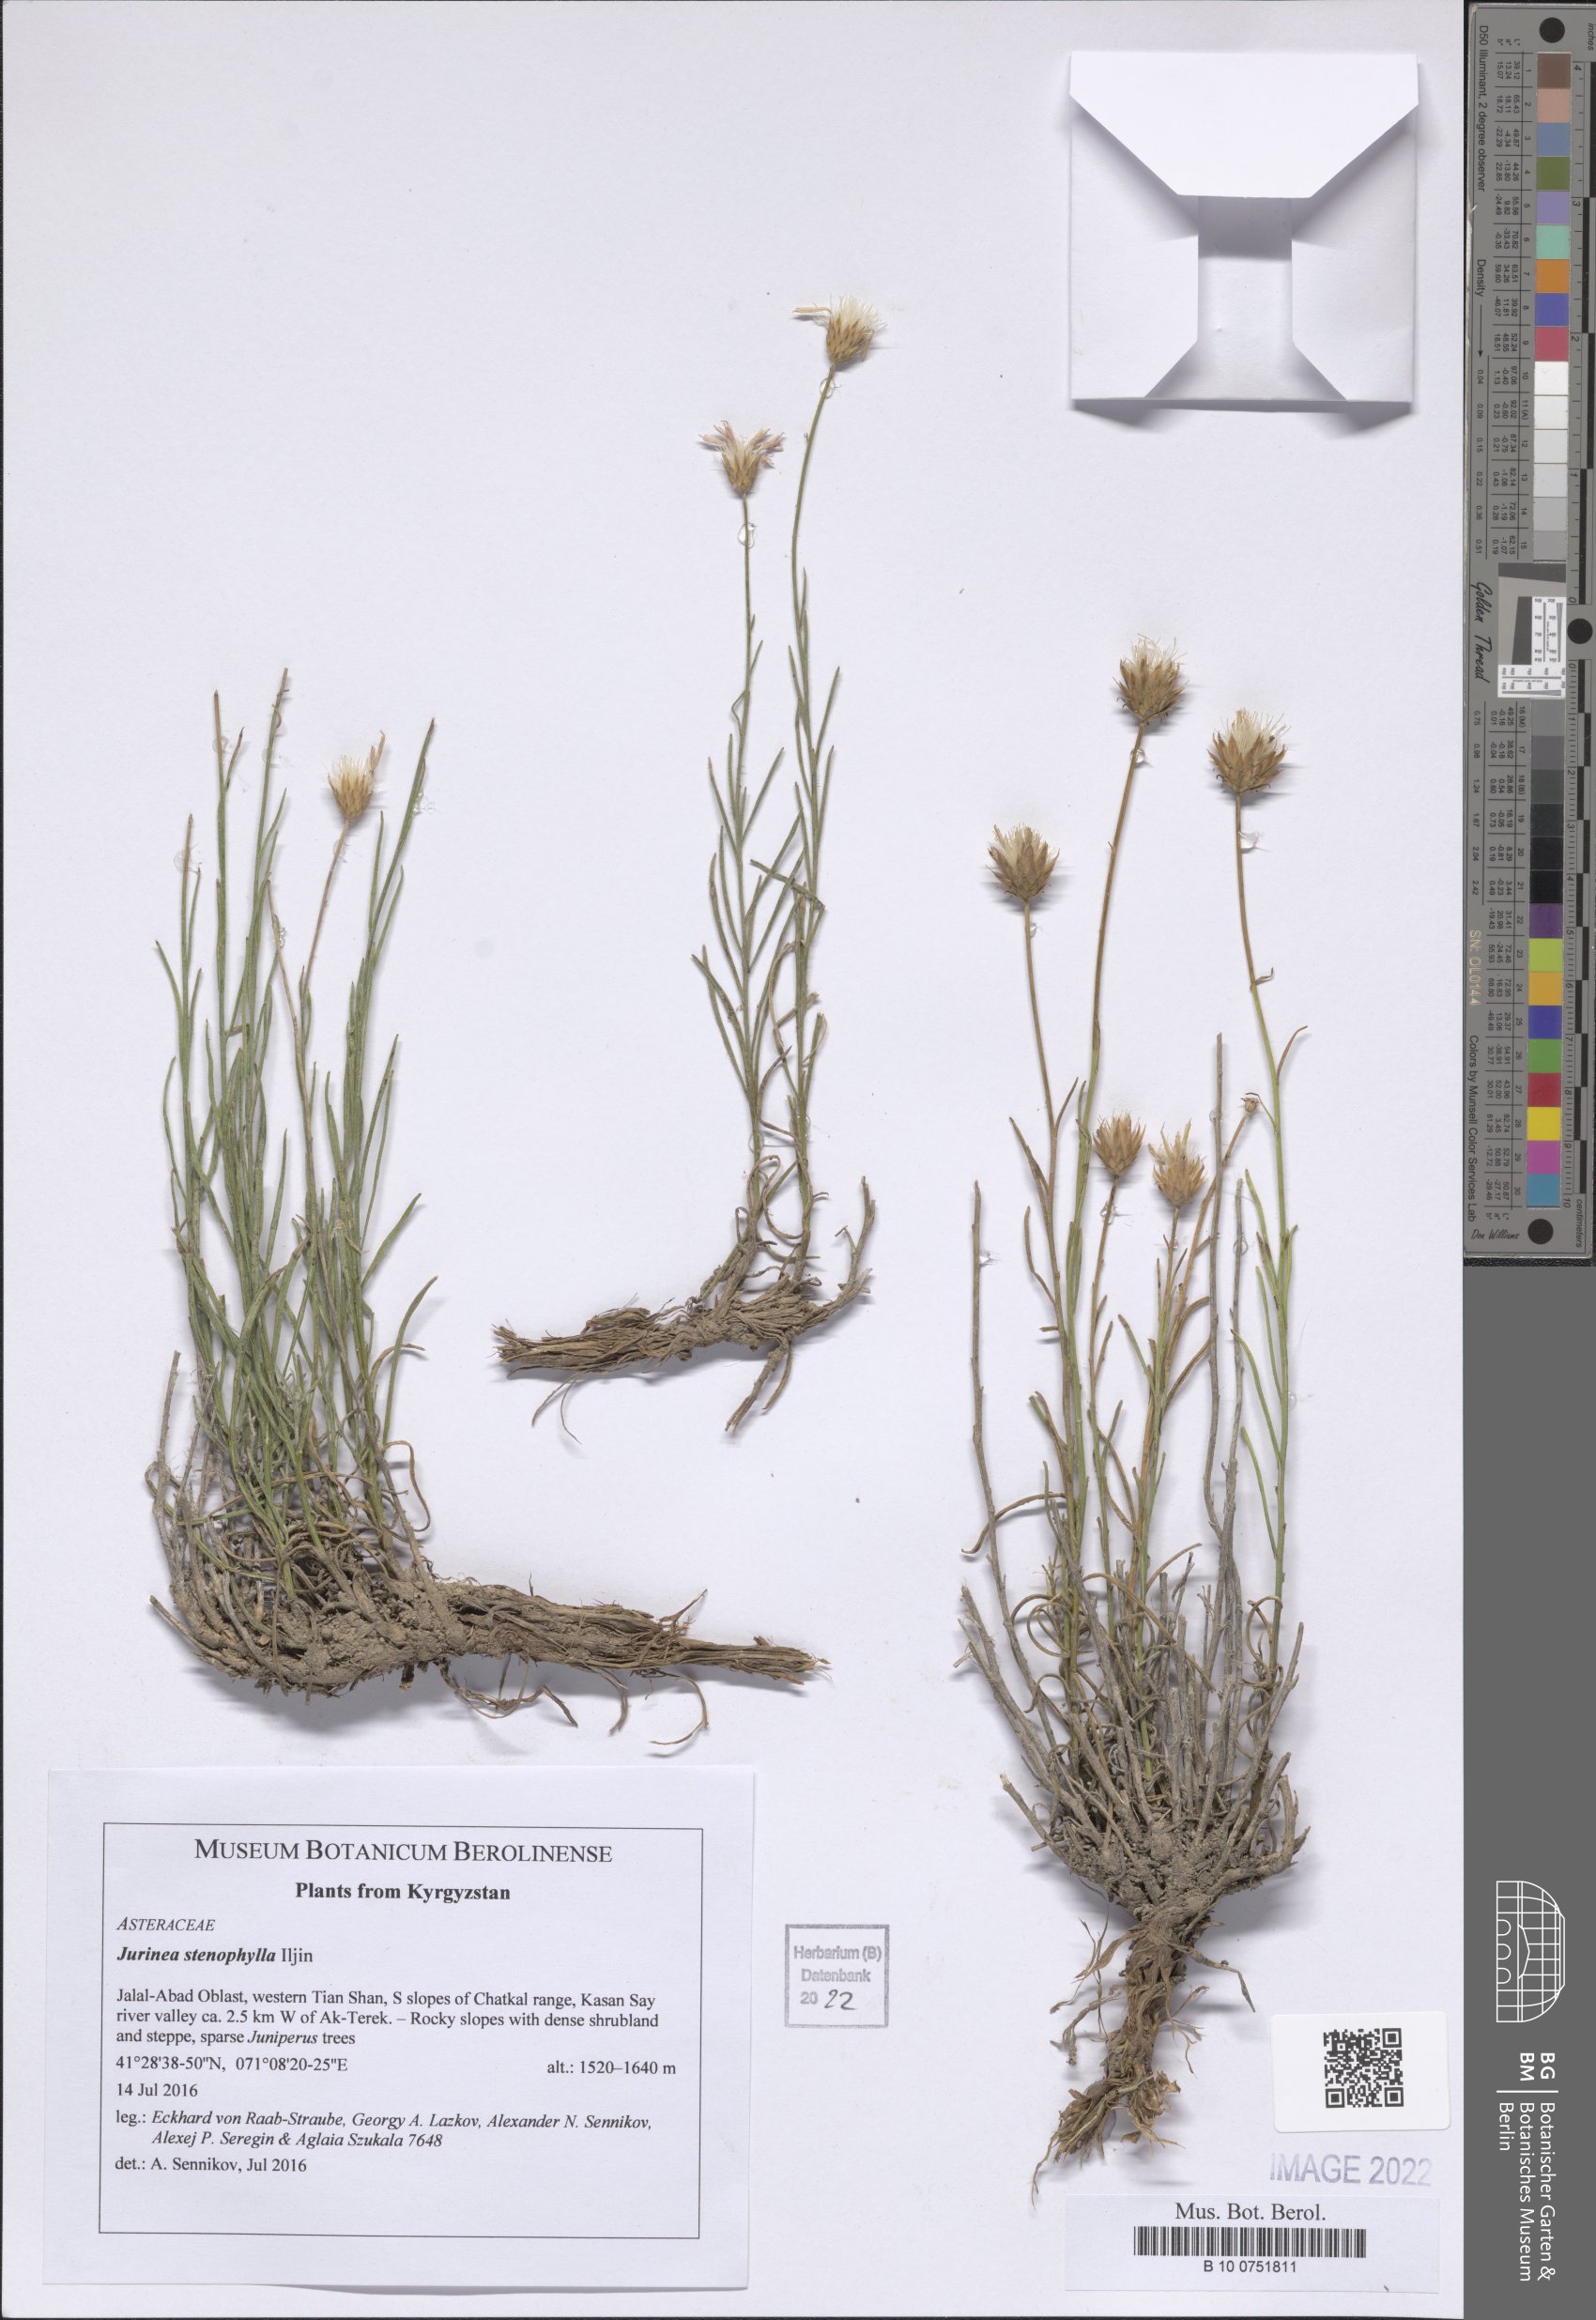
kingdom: Plantae
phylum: Tracheophyta
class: Magnoliopsida
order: Asterales
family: Asteraceae
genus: Jurinea
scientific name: Jurinea stenophylla
